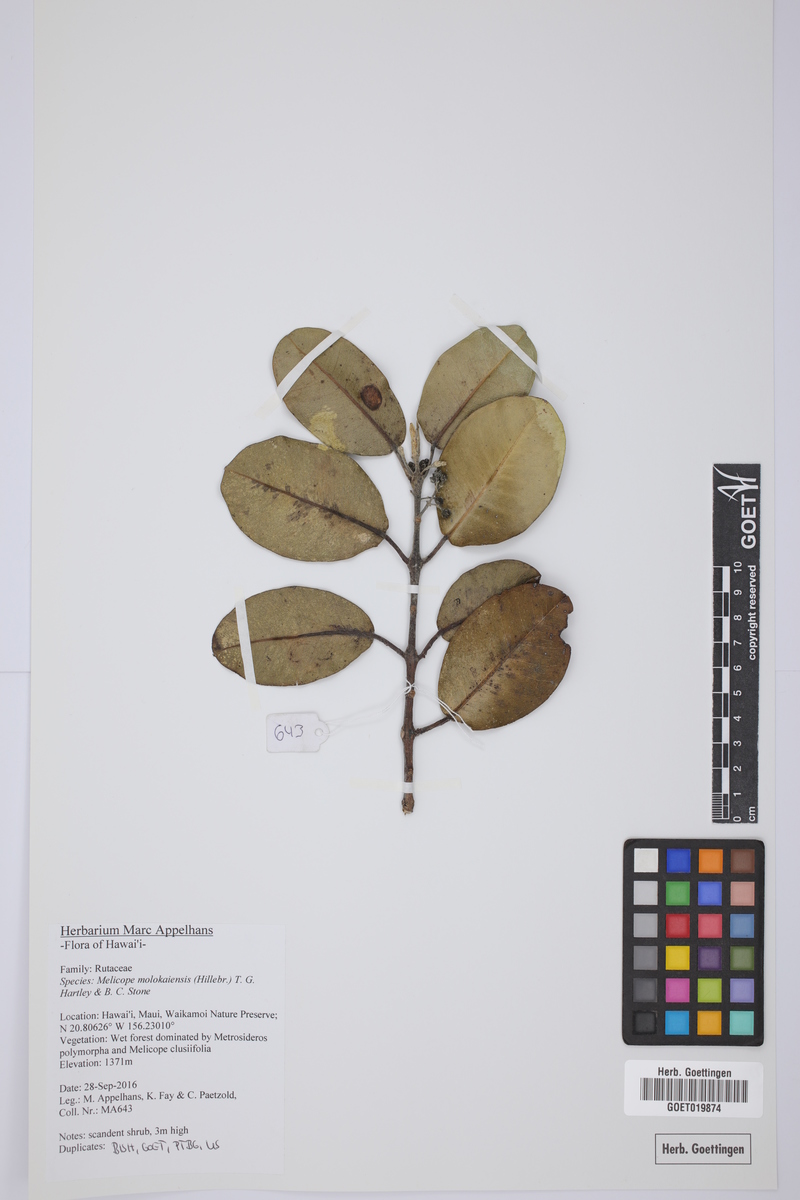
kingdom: Plantae
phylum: Tracheophyta
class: Magnoliopsida
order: Sapindales
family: Rutaceae
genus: Melicope
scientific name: Melicope molokaiensis
